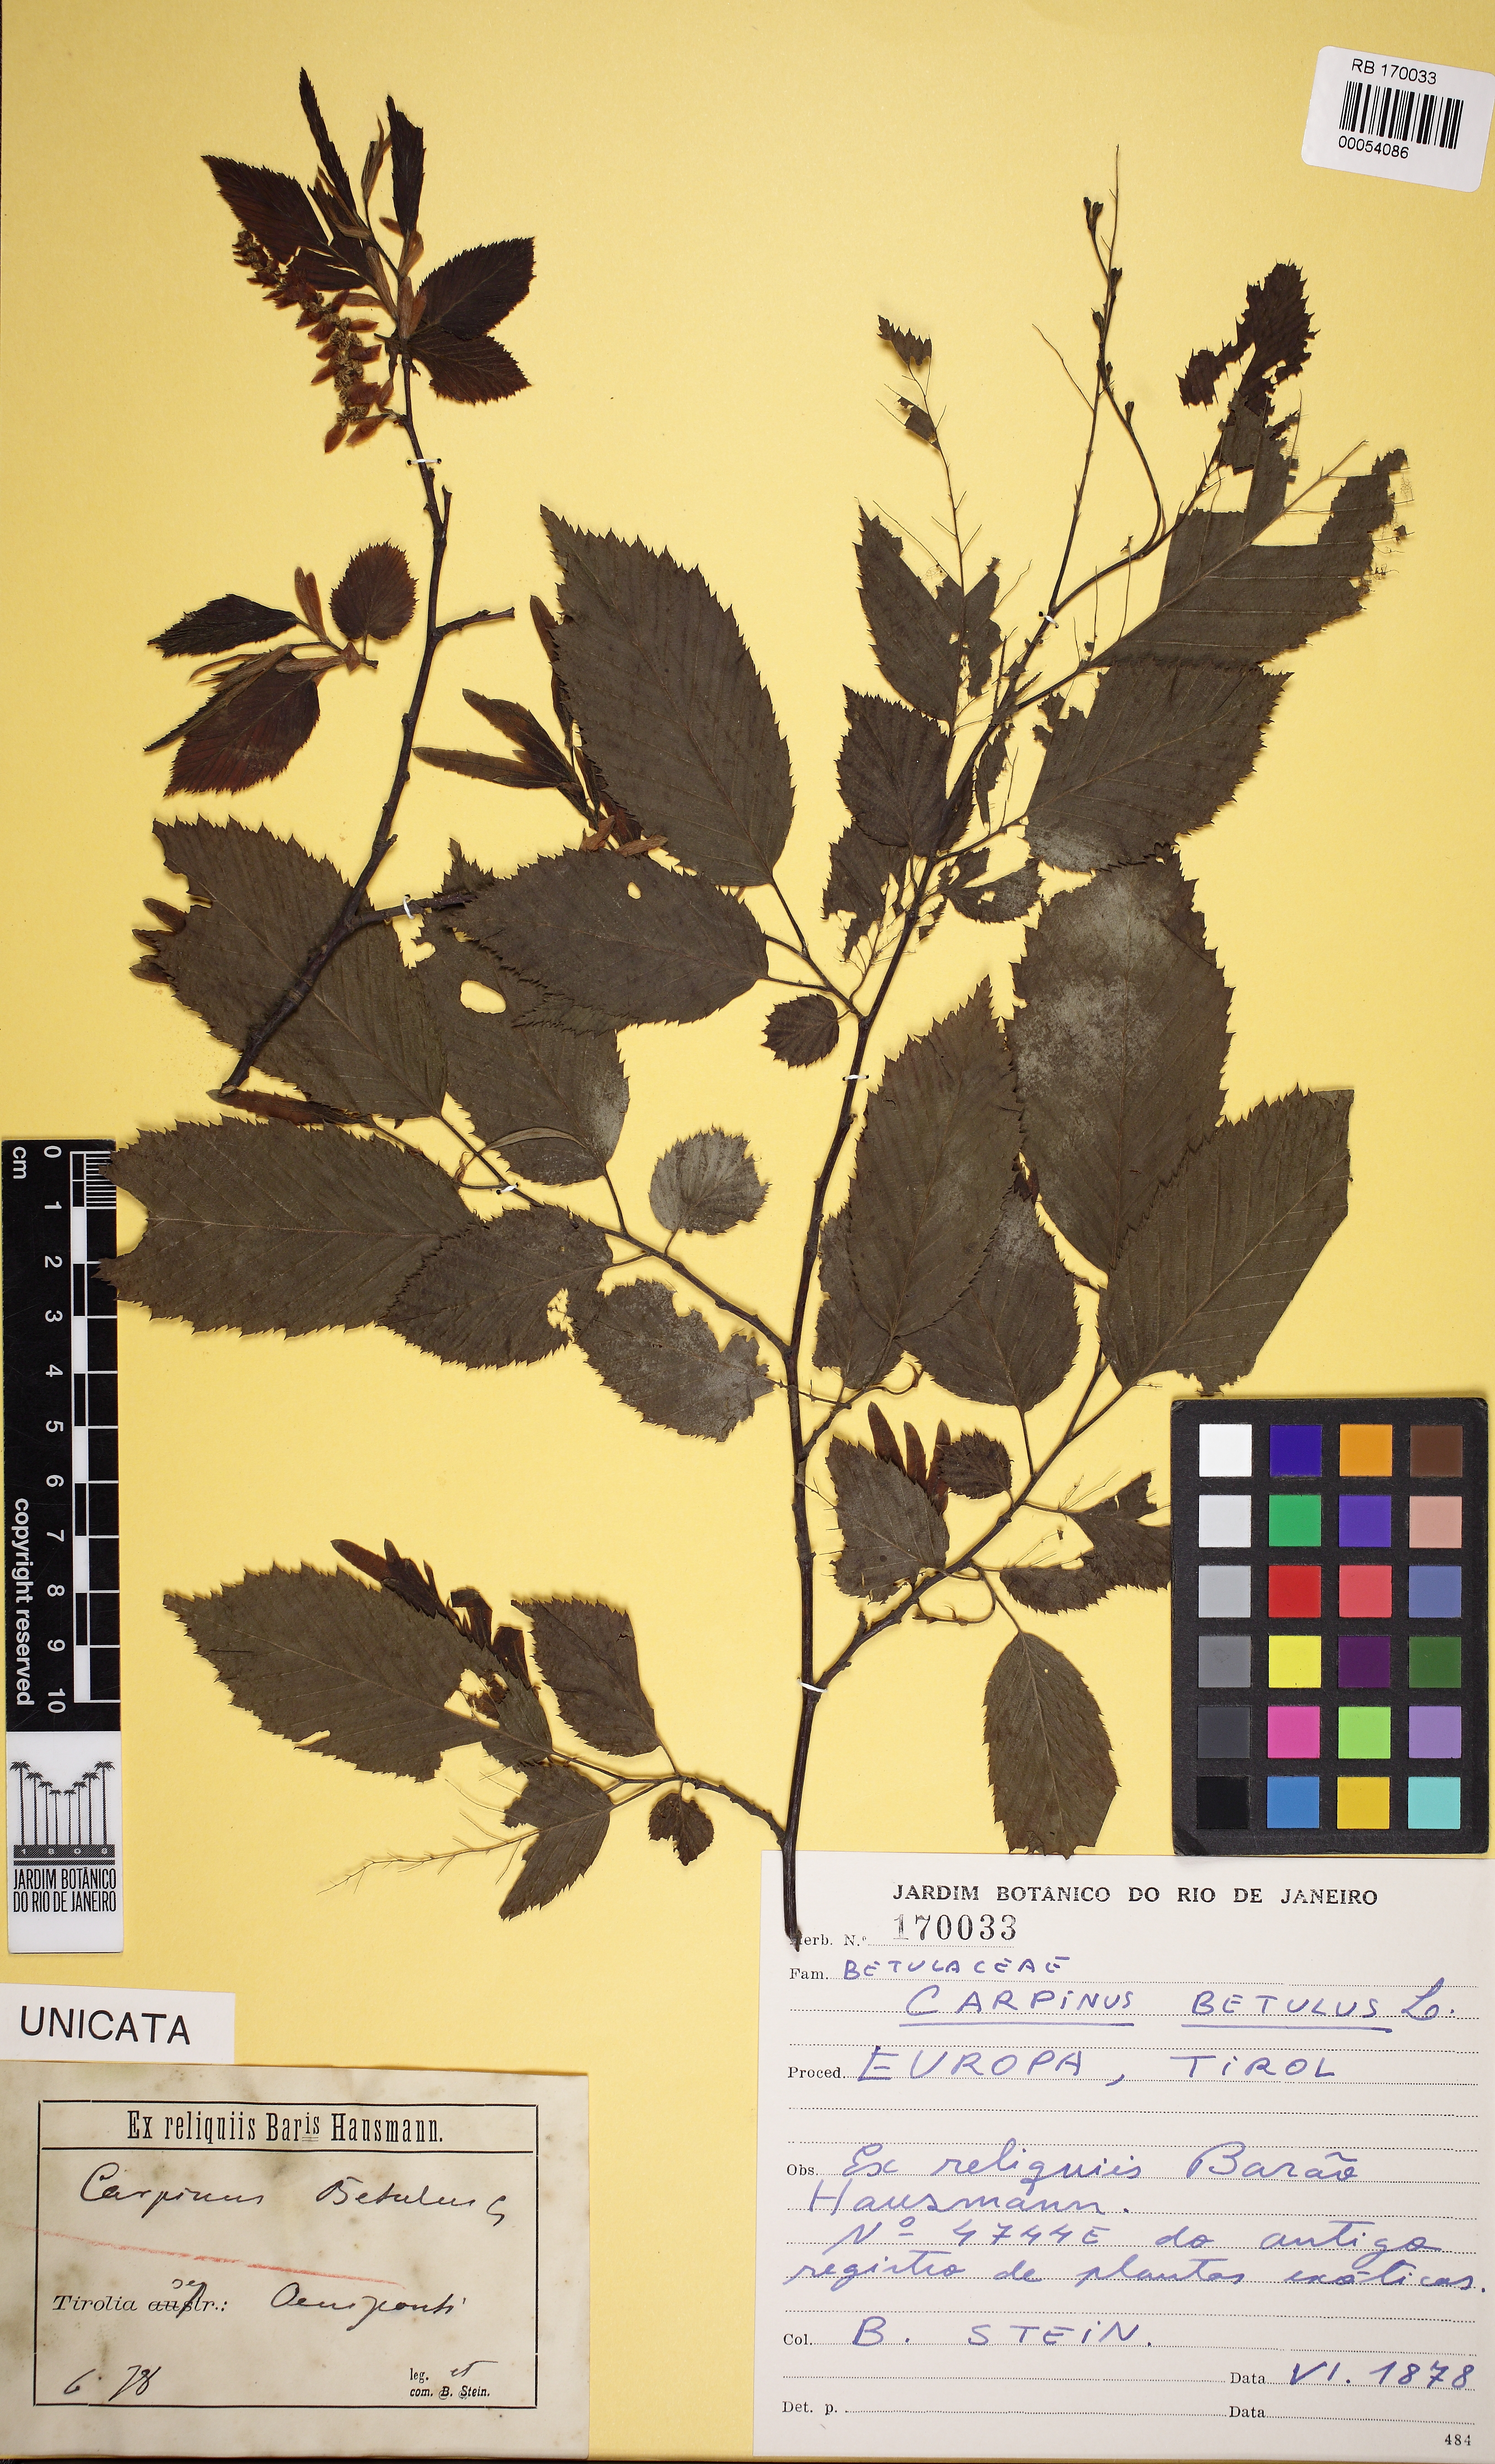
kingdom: Plantae
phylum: Tracheophyta
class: Magnoliopsida
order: Fagales
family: Betulaceae
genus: Carpinus
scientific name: Carpinus betulus
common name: Hornbeam
